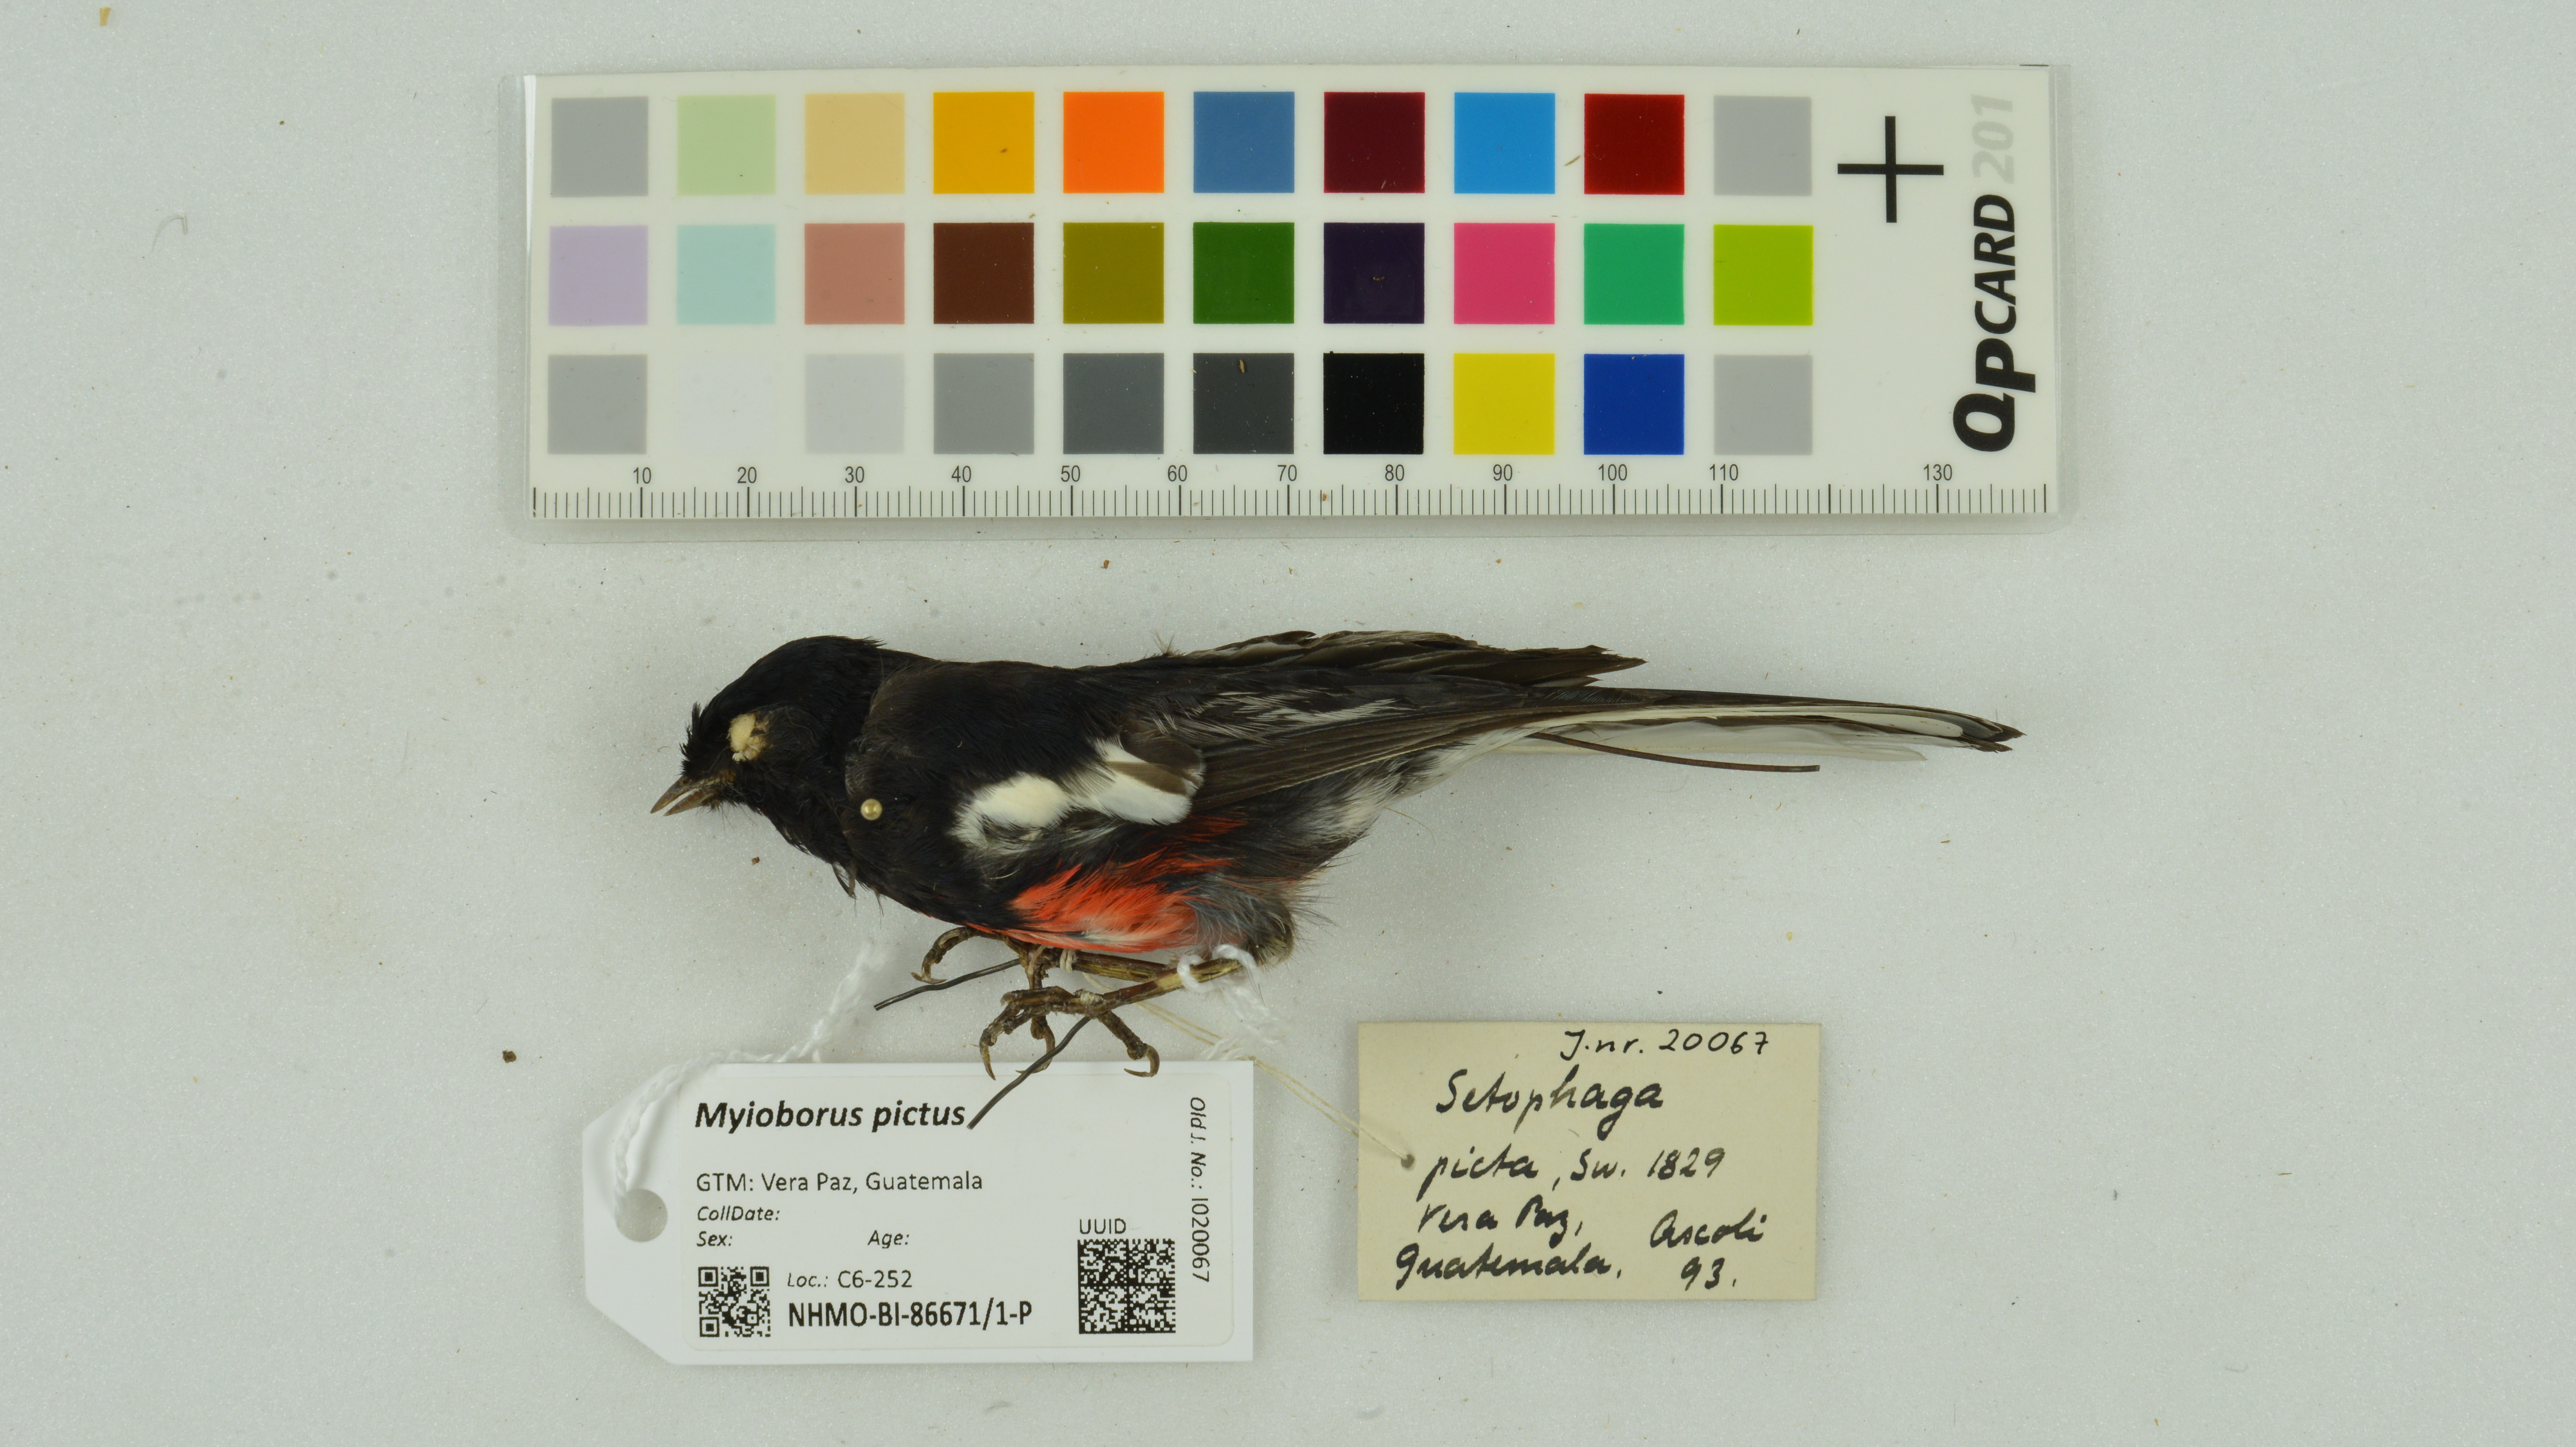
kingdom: Animalia
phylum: Chordata
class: Aves
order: Passeriformes
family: Parulidae
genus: Myioborus
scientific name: Myioborus pictus
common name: Painted whitestart
